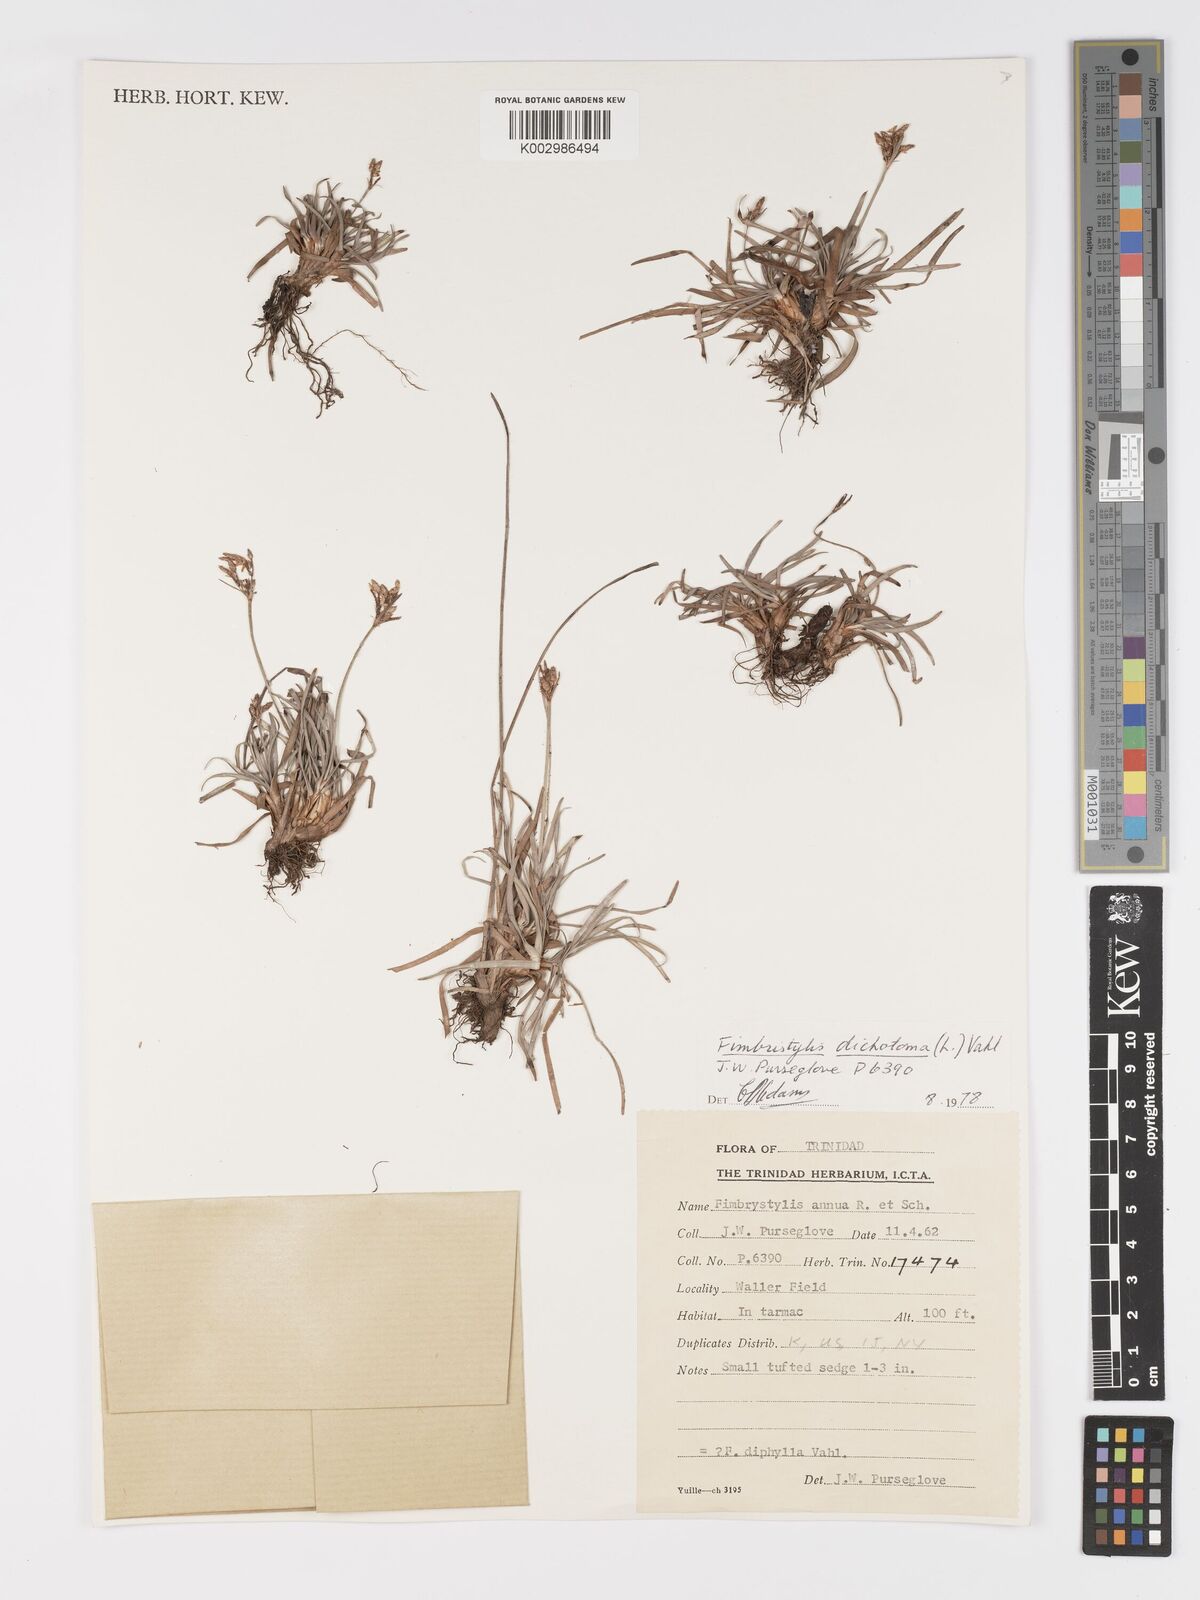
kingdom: Plantae
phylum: Tracheophyta
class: Liliopsida
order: Poales
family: Cyperaceae
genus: Fimbristylis
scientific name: Fimbristylis dichotoma
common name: Forked fimbry
